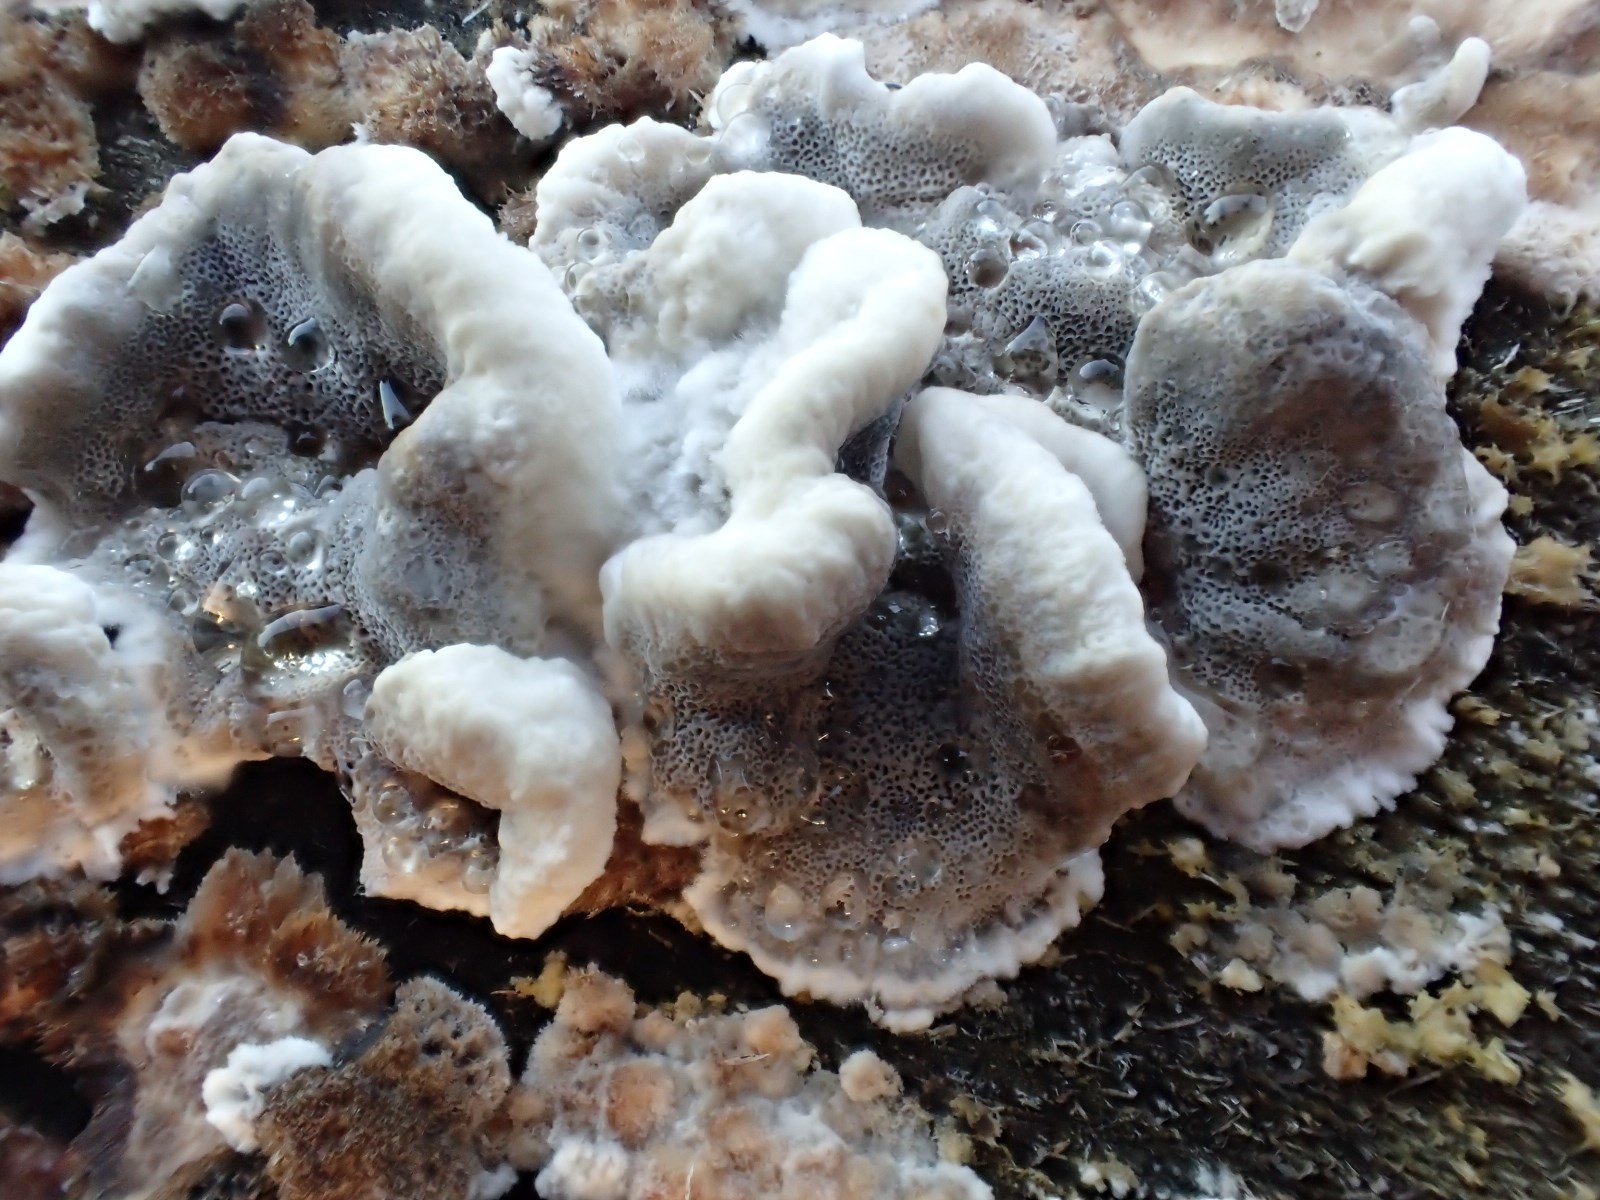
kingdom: Fungi
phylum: Basidiomycota
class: Agaricomycetes
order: Polyporales
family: Phanerochaetaceae
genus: Bjerkandera
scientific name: Bjerkandera adusta
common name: sveden sodporesvamp
